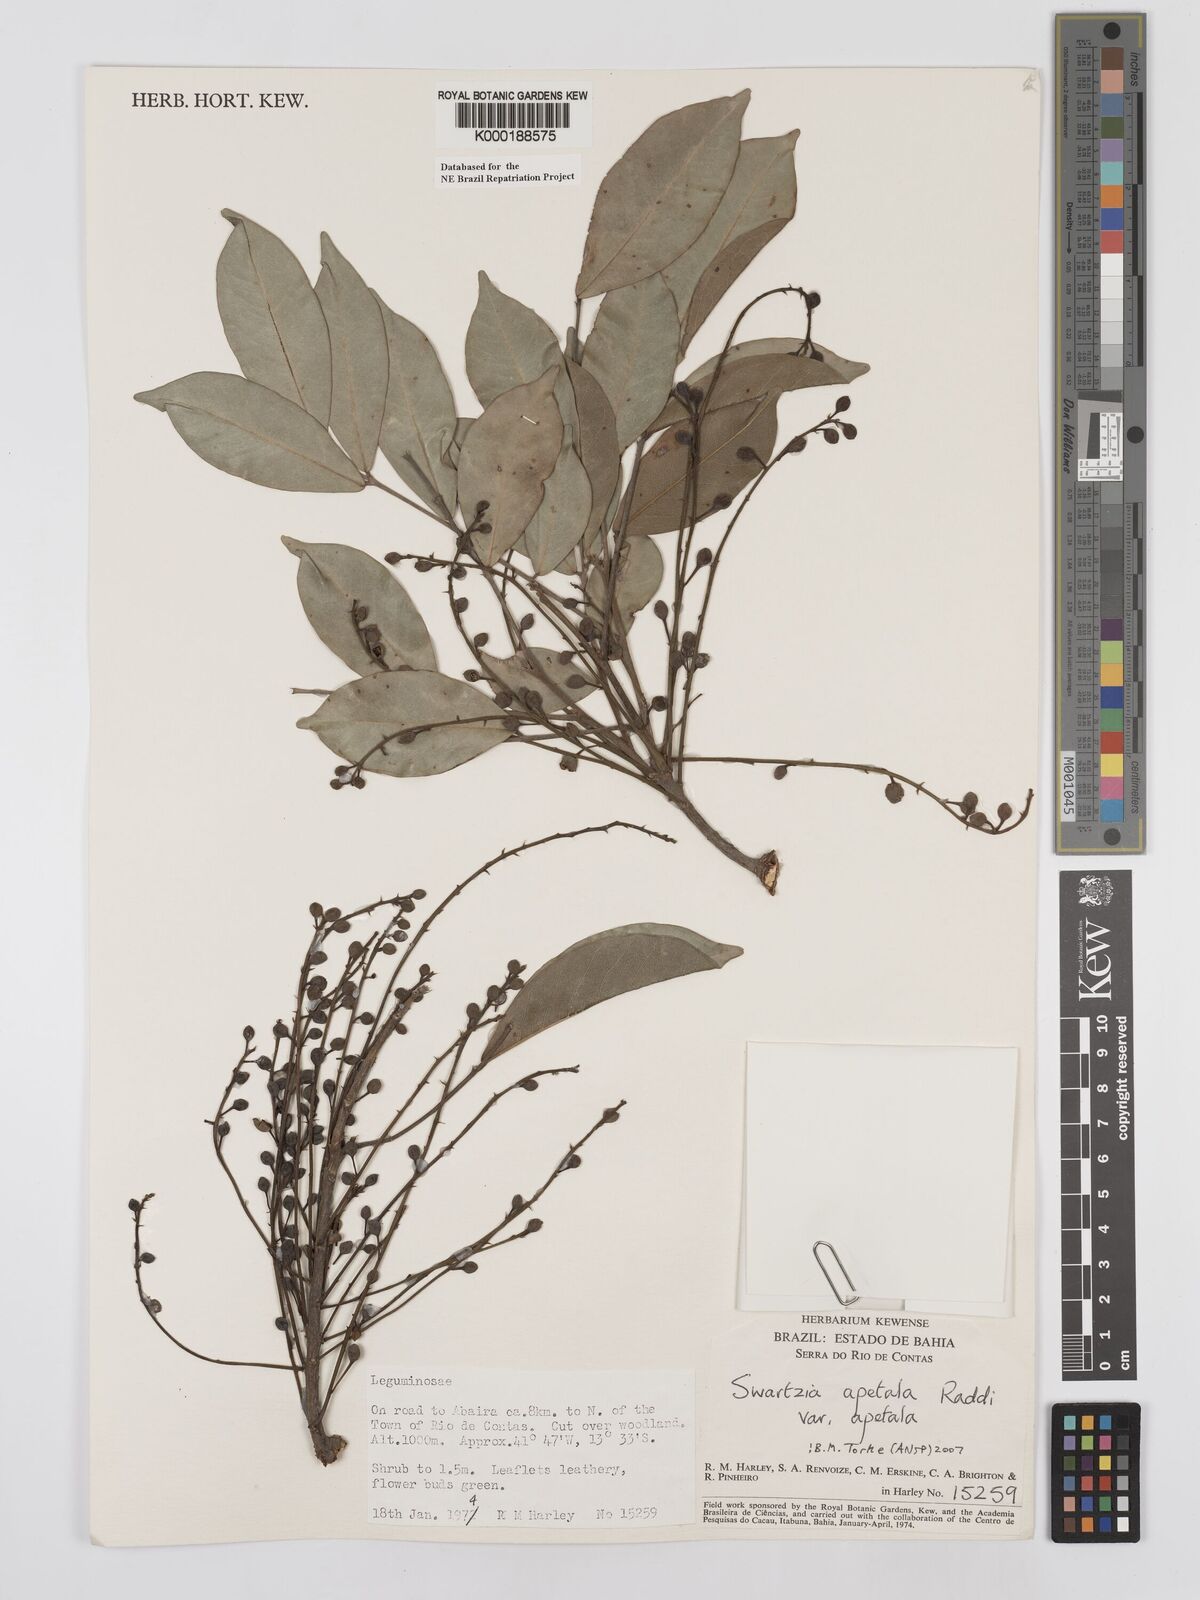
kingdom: Plantae
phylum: Tracheophyta
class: Magnoliopsida
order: Fabales
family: Fabaceae
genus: Swartzia
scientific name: Swartzia apetala
